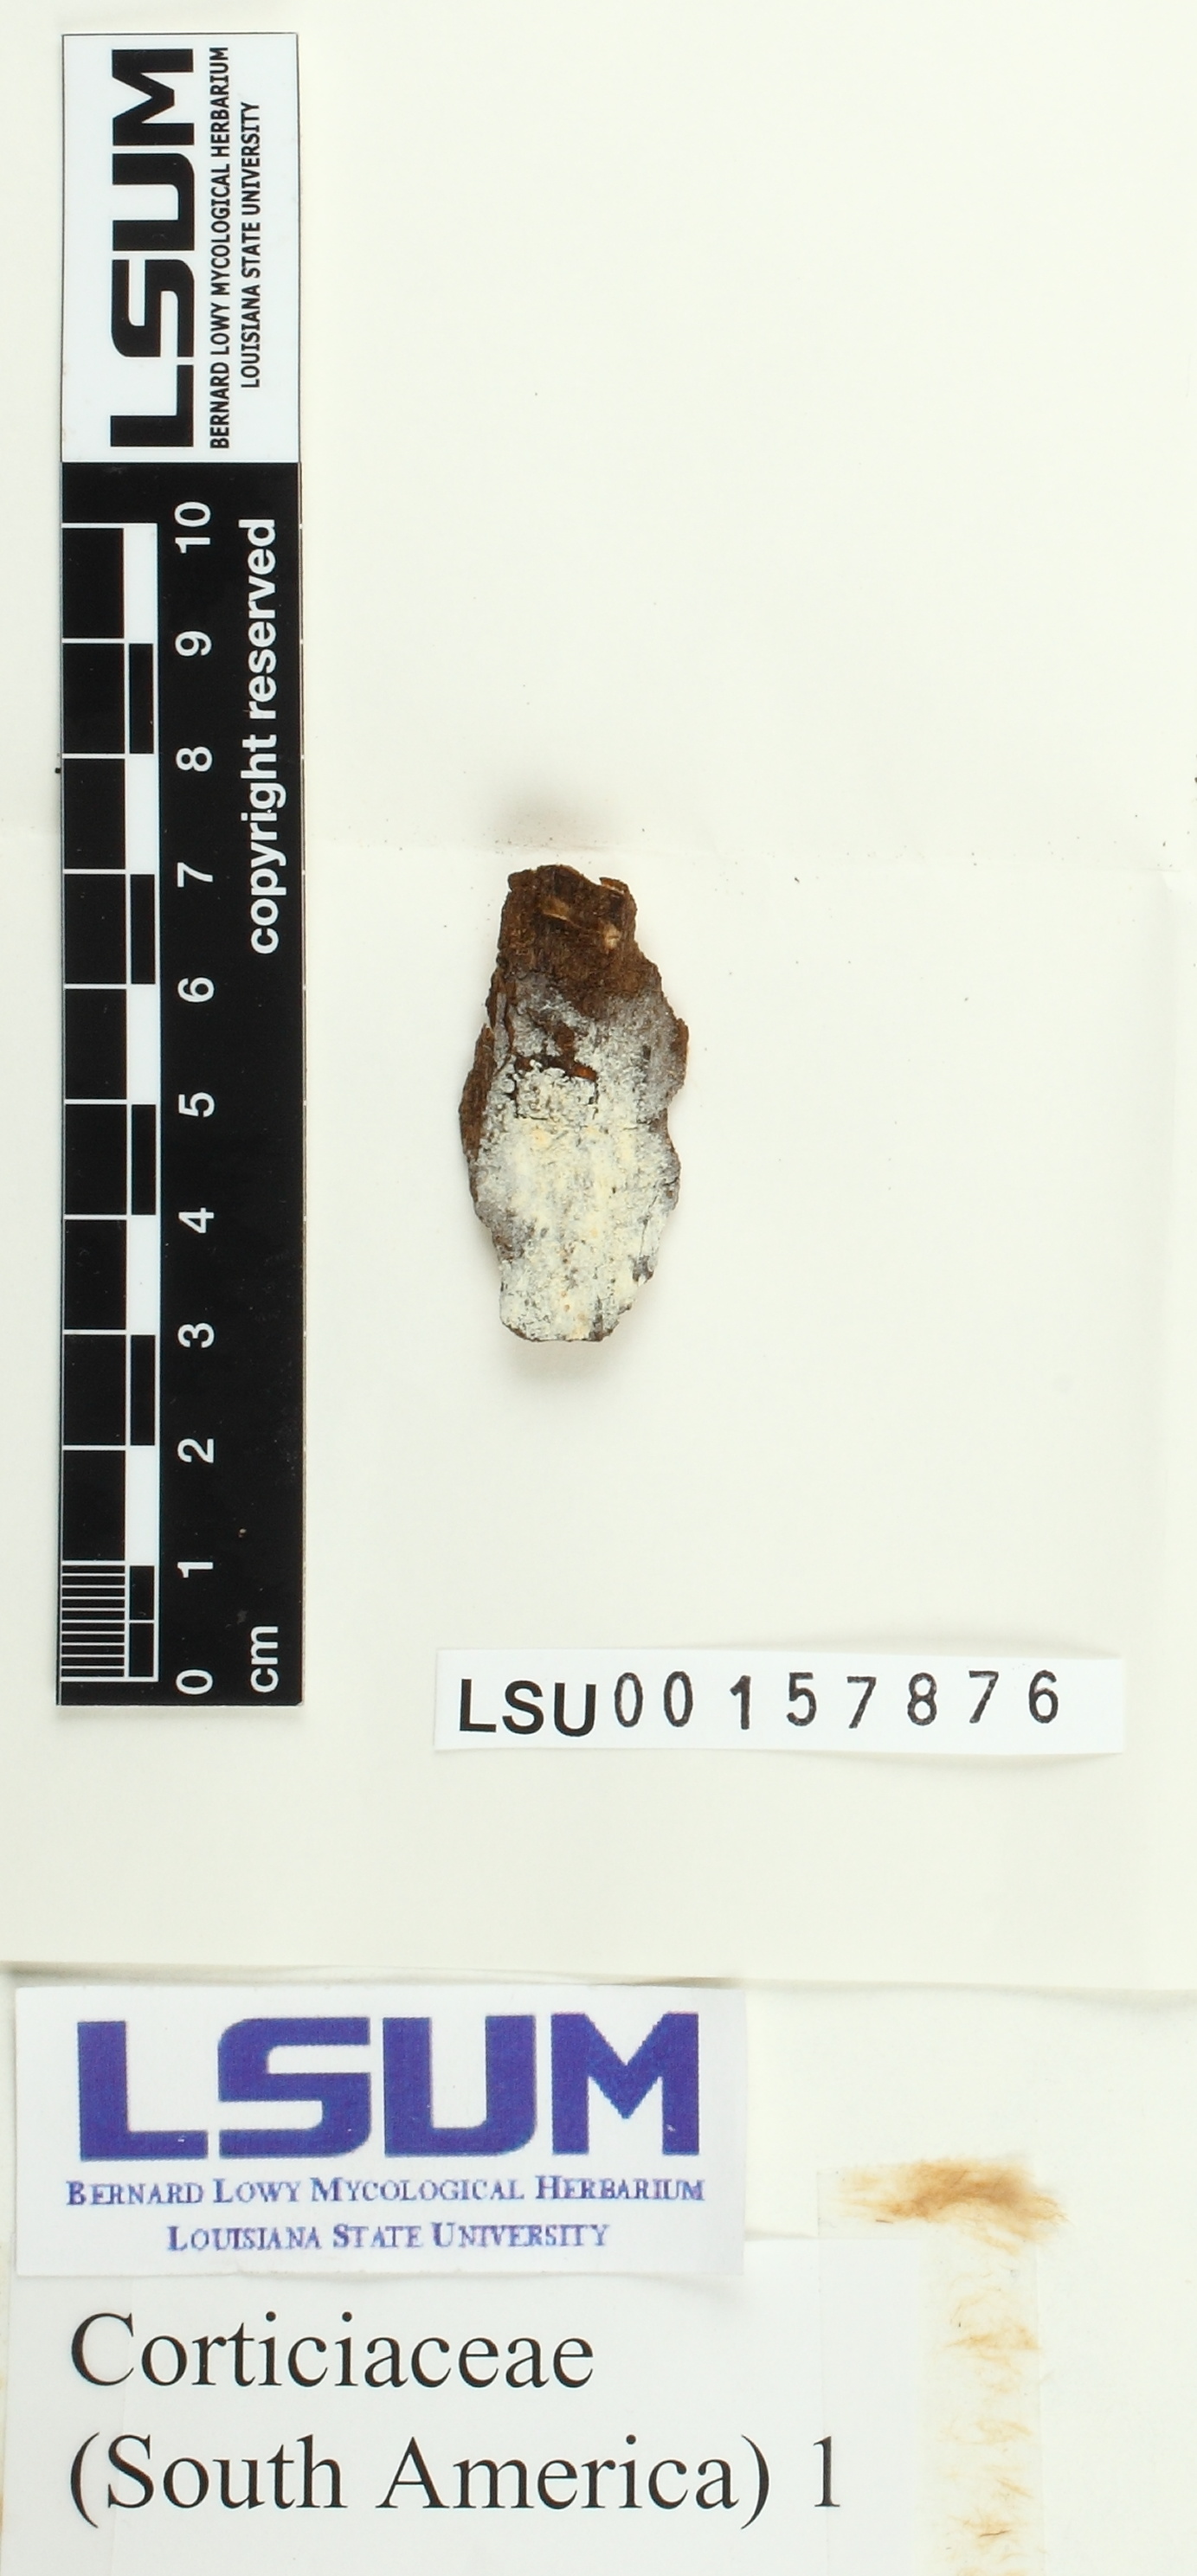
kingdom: Fungi
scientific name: Fungi
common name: Fungi
